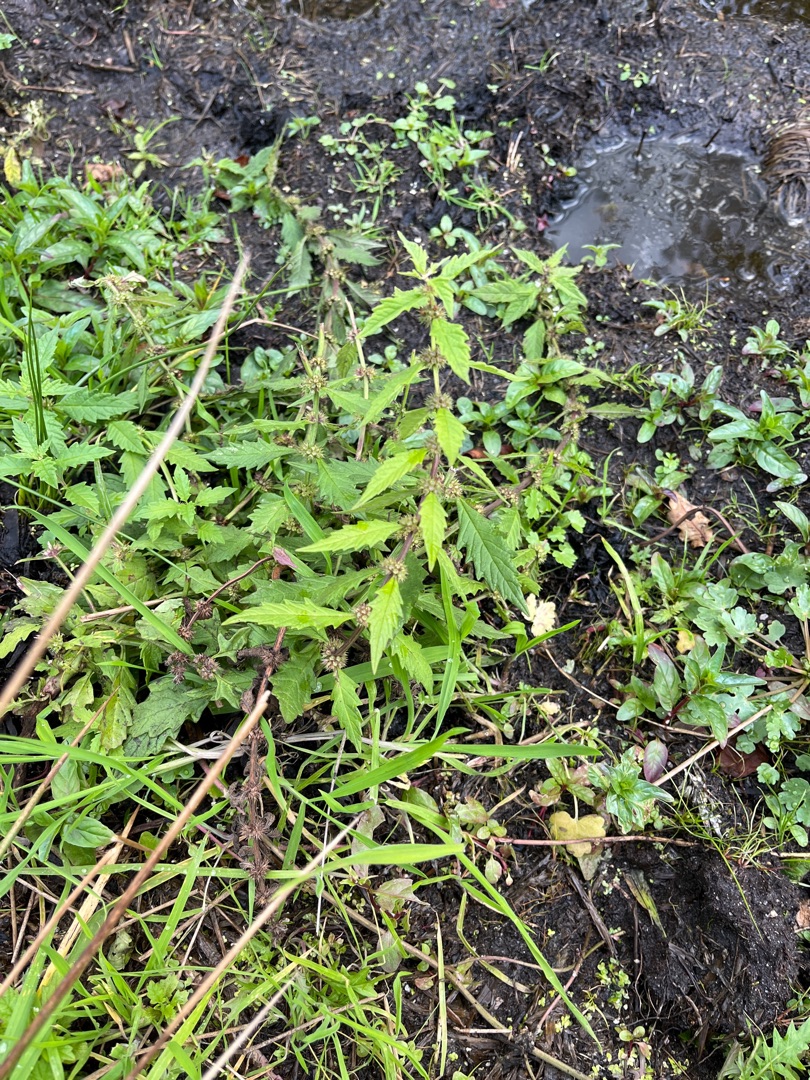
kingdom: Plantae
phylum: Tracheophyta
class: Magnoliopsida
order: Lamiales
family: Lamiaceae
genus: Lycopus
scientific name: Lycopus europaeus
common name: Sværtevæld
